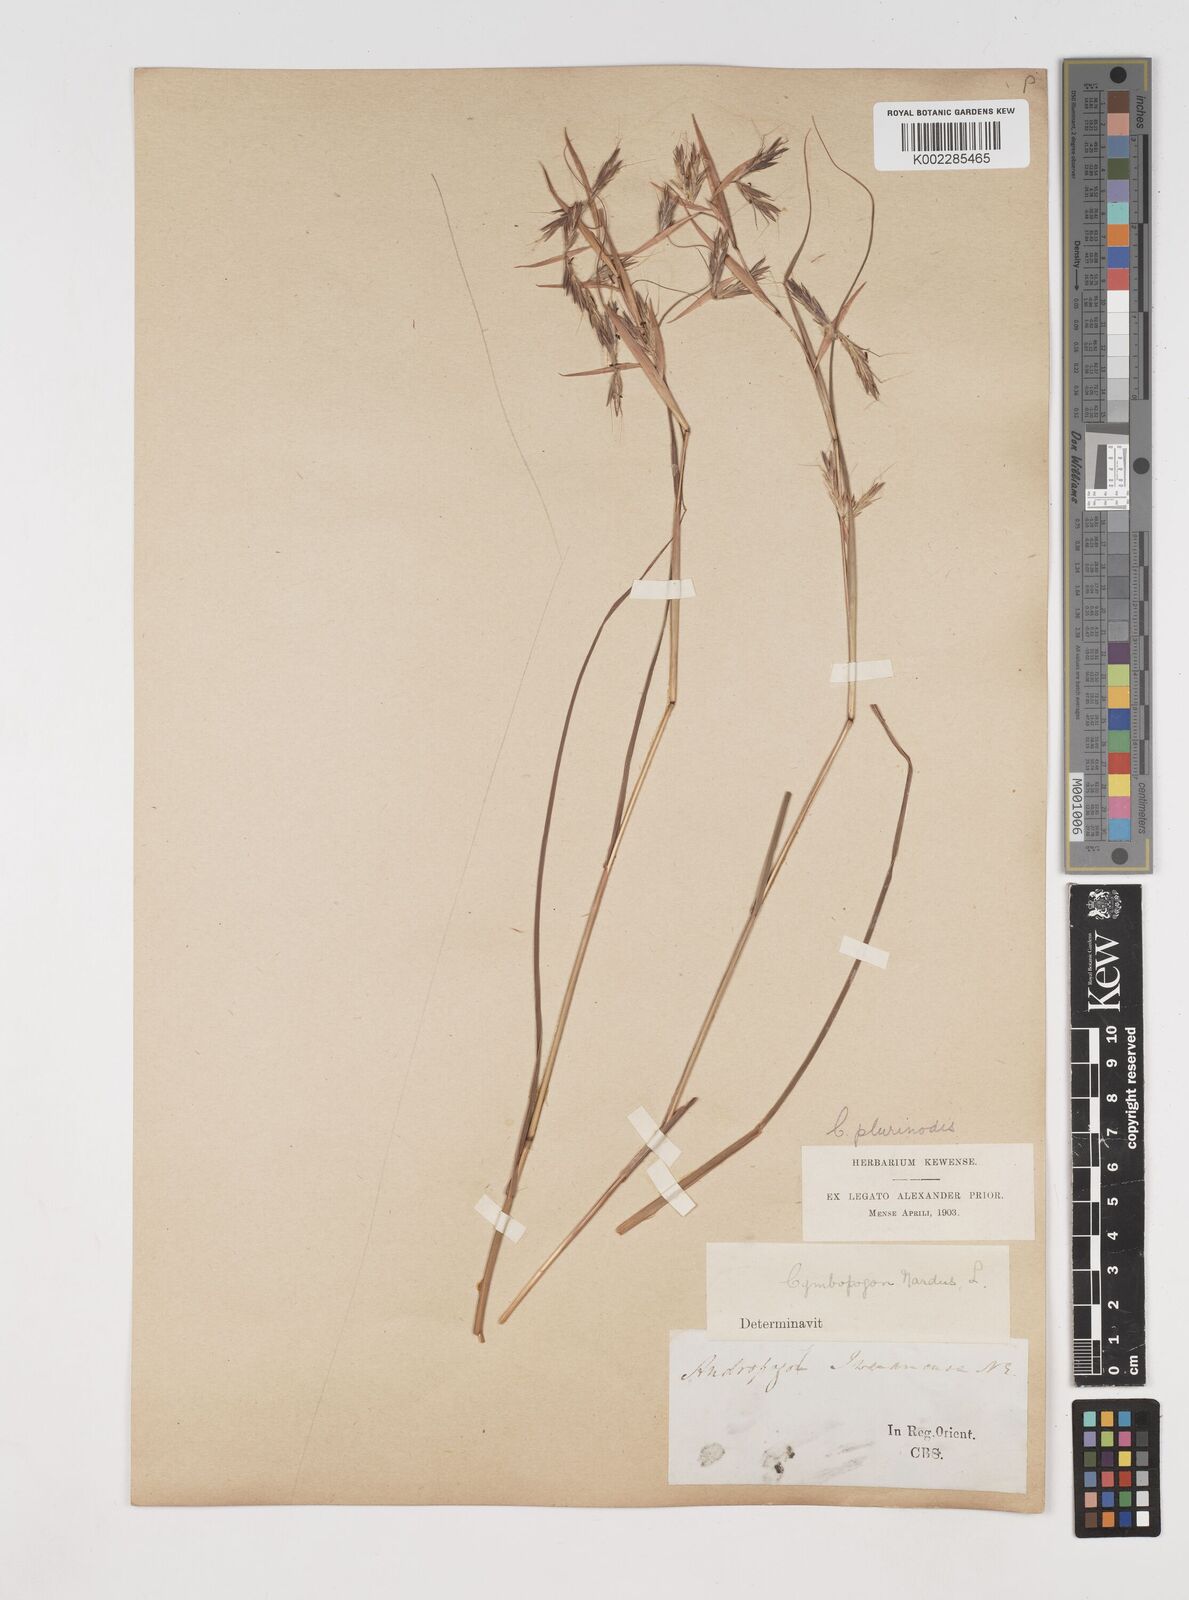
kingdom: Plantae
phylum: Tracheophyta
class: Liliopsida
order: Poales
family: Poaceae
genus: Cymbopogon
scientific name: Cymbopogon pospischilii
